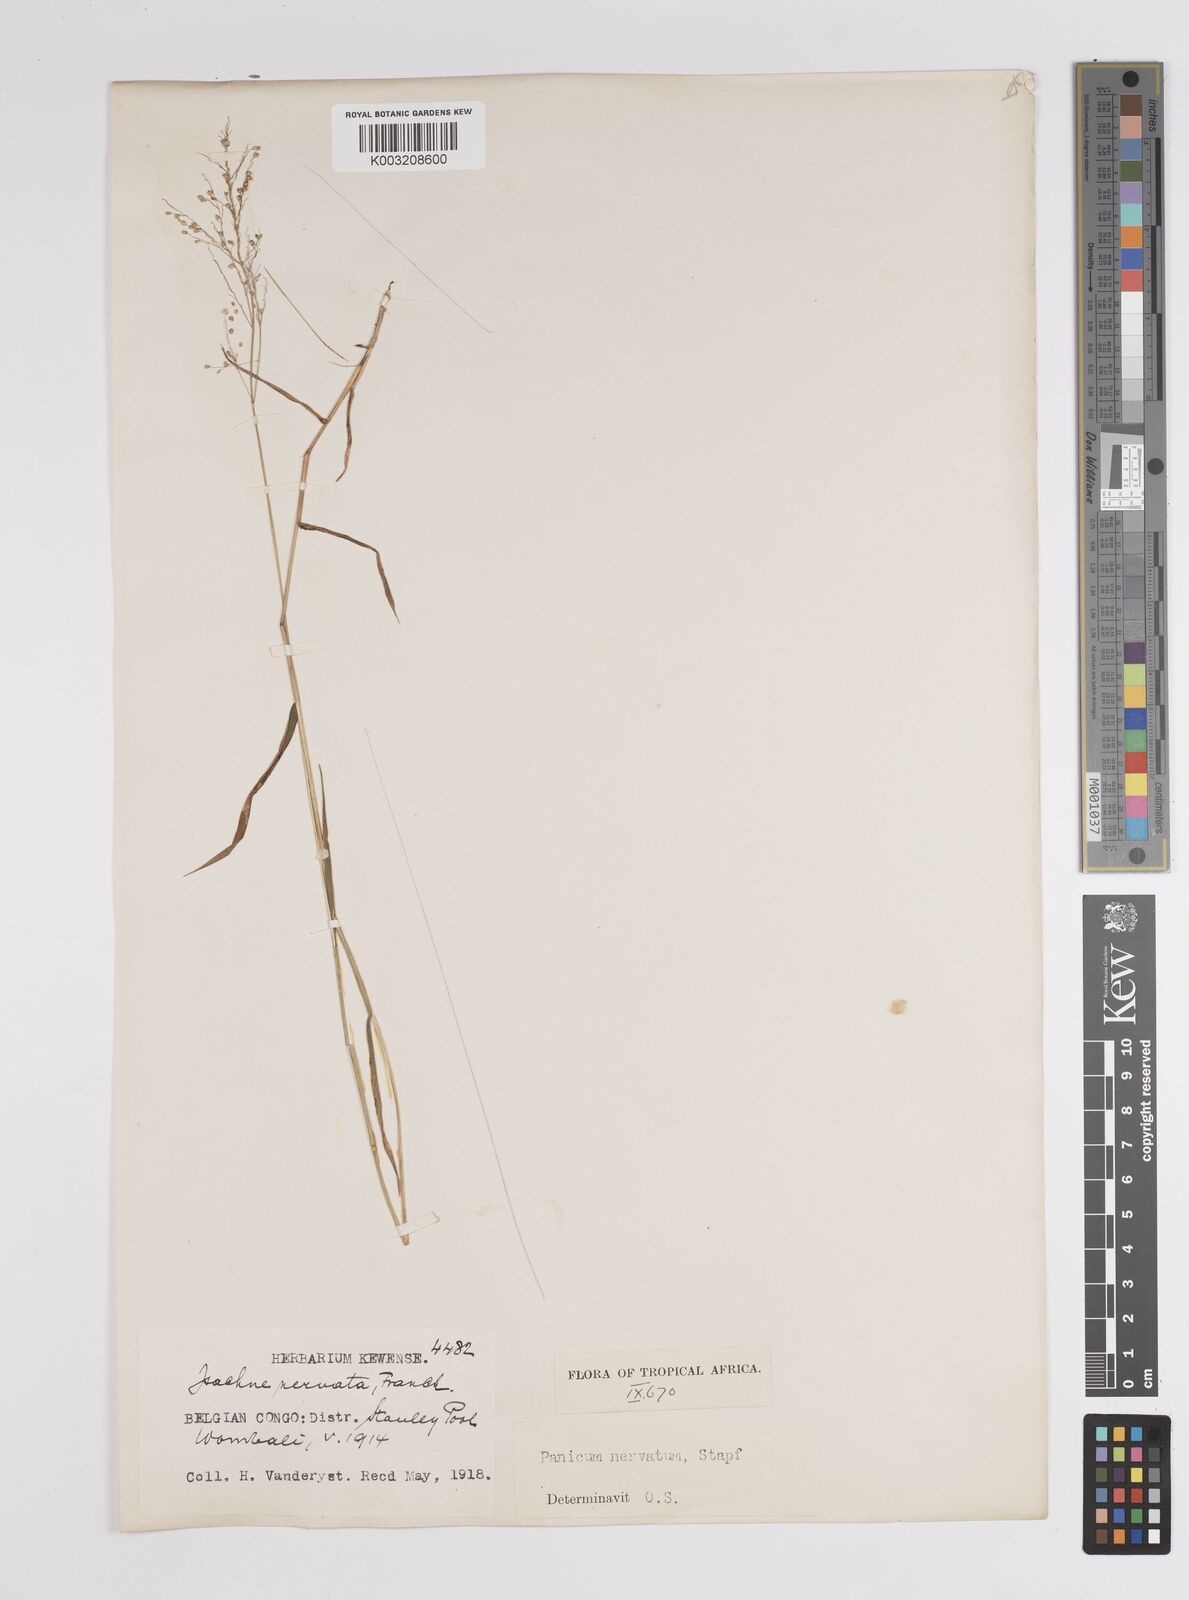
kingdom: Plantae
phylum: Tracheophyta
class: Liliopsida
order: Poales
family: Poaceae
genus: Trichanthecium
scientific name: Trichanthecium nervatum
